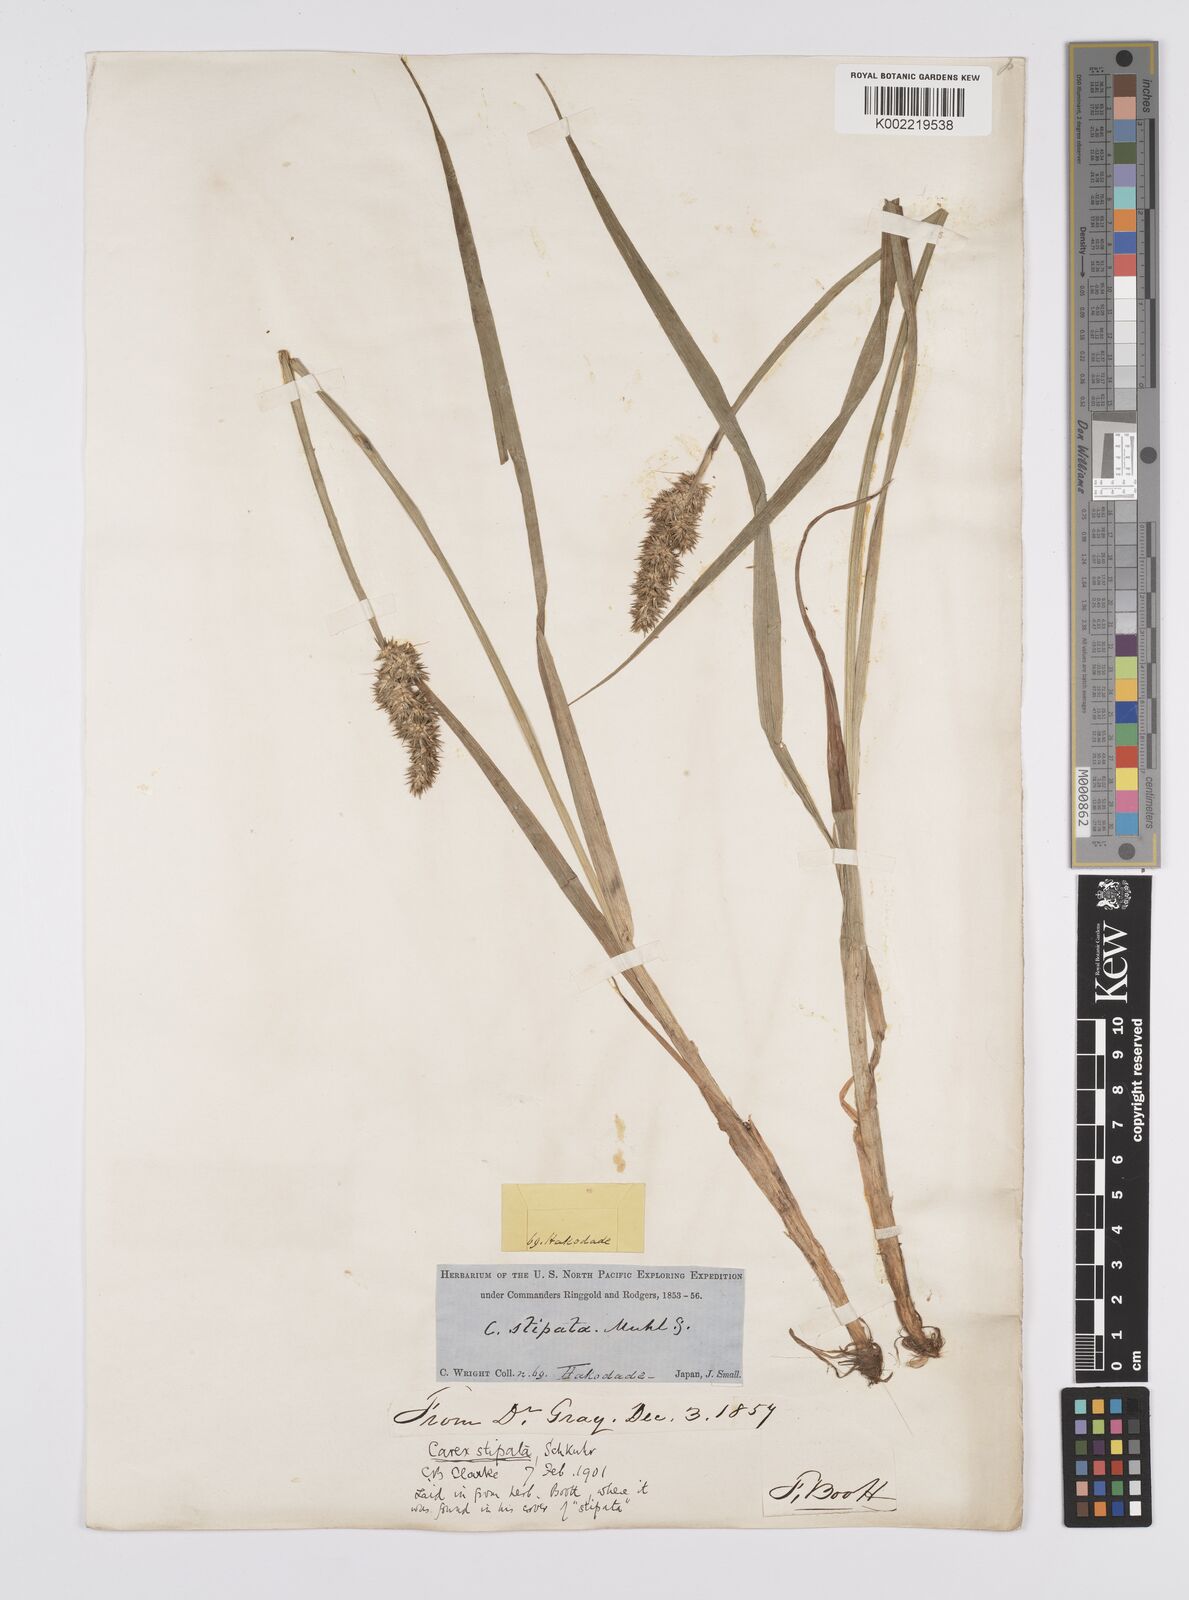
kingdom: Plantae
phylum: Tracheophyta
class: Liliopsida
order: Poales
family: Cyperaceae
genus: Carex
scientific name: Carex stipata
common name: Awl-fruited sedge
